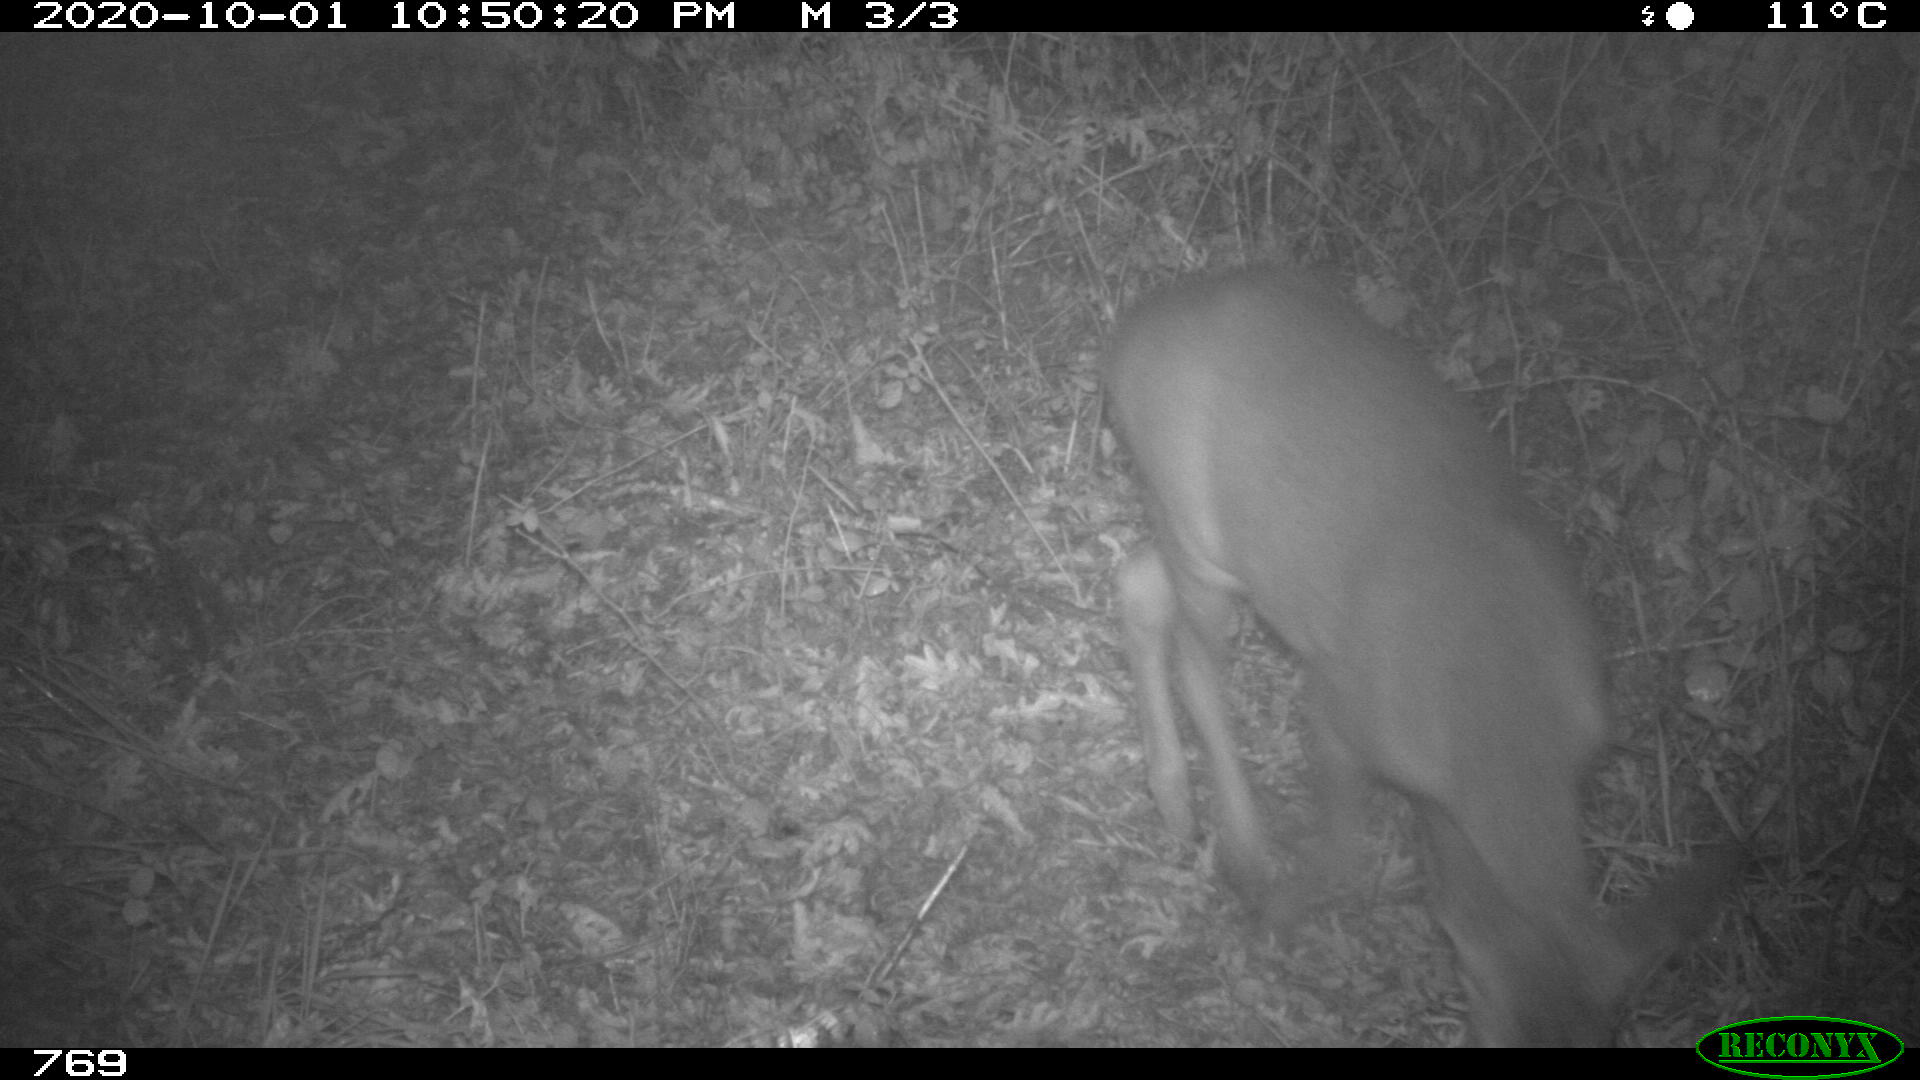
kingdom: Animalia
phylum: Chordata
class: Mammalia
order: Artiodactyla
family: Cervidae
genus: Capreolus
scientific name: Capreolus capreolus
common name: Western roe deer
